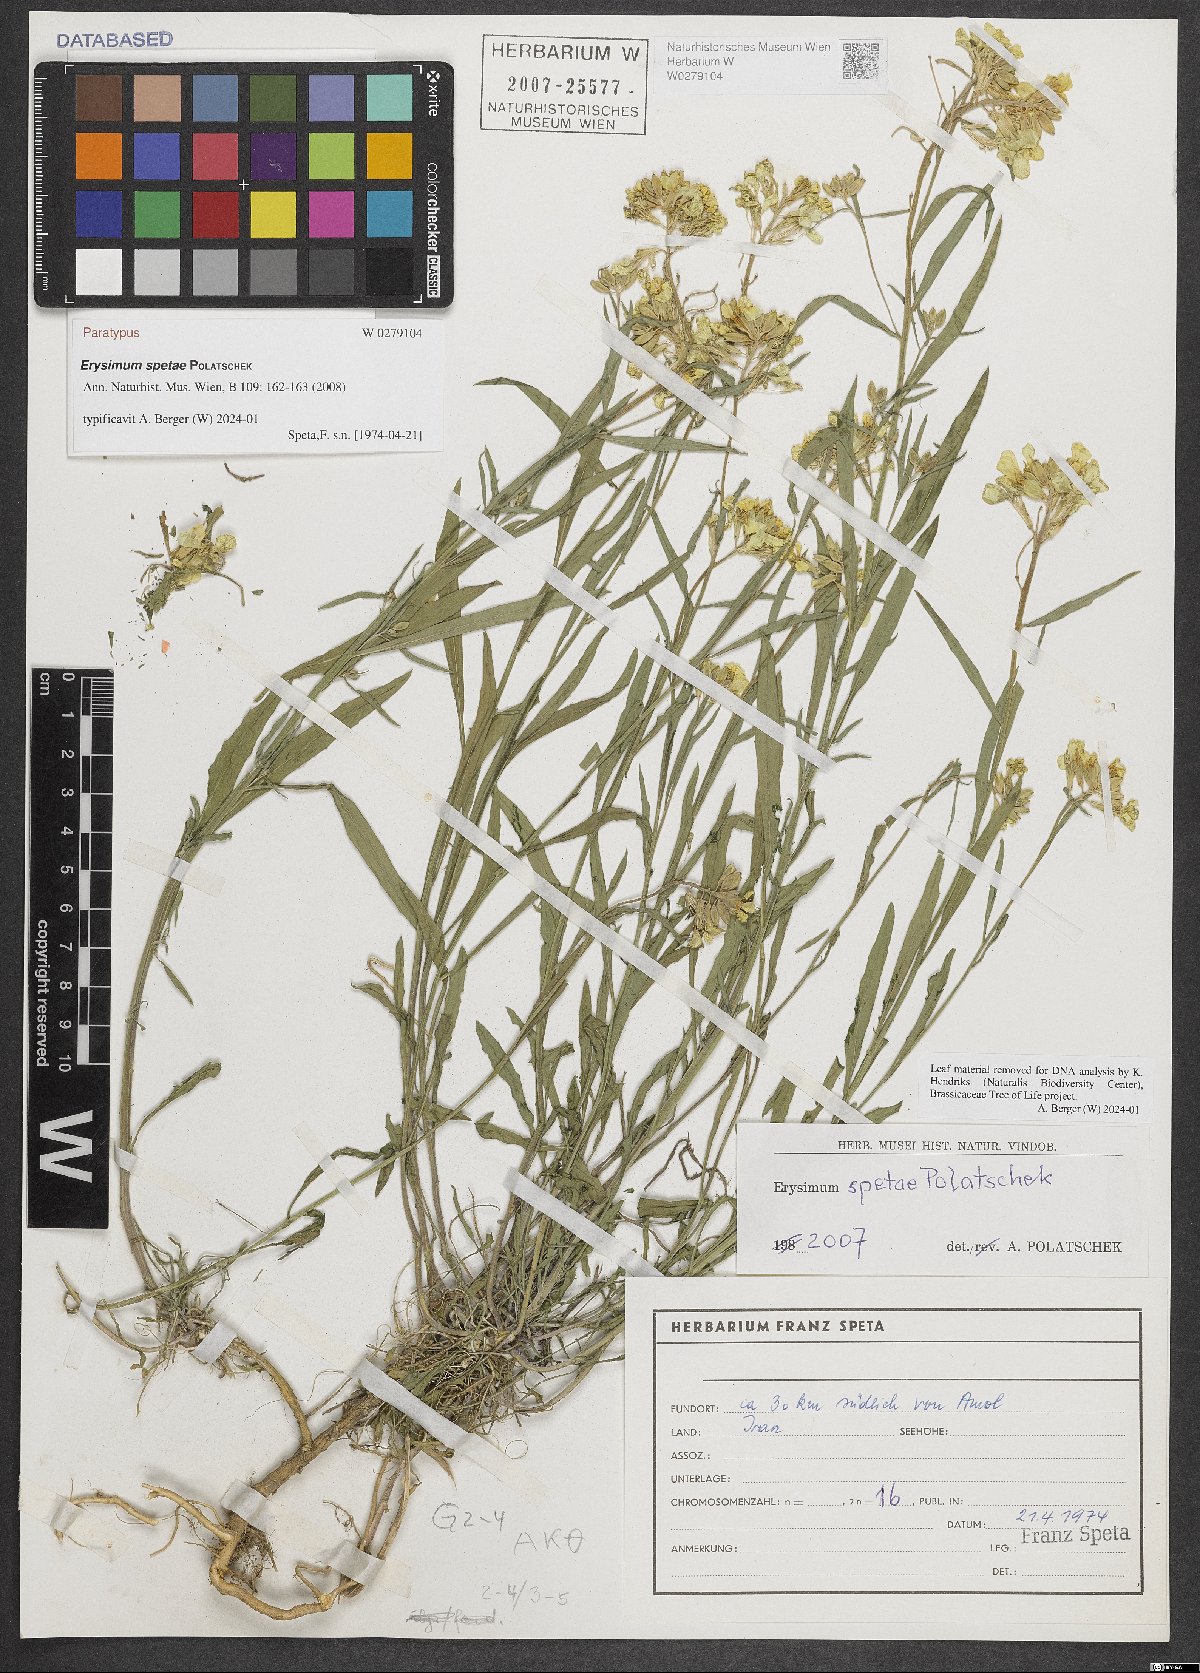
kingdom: Plantae
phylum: Tracheophyta
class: Magnoliopsida
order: Brassicales
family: Brassicaceae
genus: Erysimum
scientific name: Erysimum spetae
